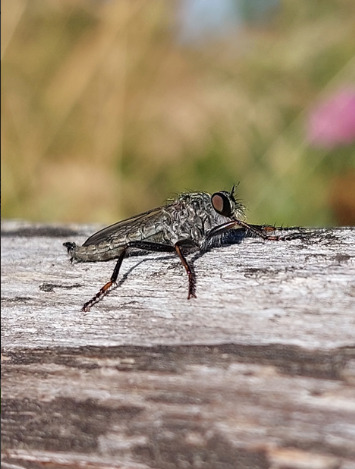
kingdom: Animalia
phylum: Arthropoda
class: Insecta
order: Diptera
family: Asilidae
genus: Machimus
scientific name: Machimus atricapillus
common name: Sort hårrovflue
